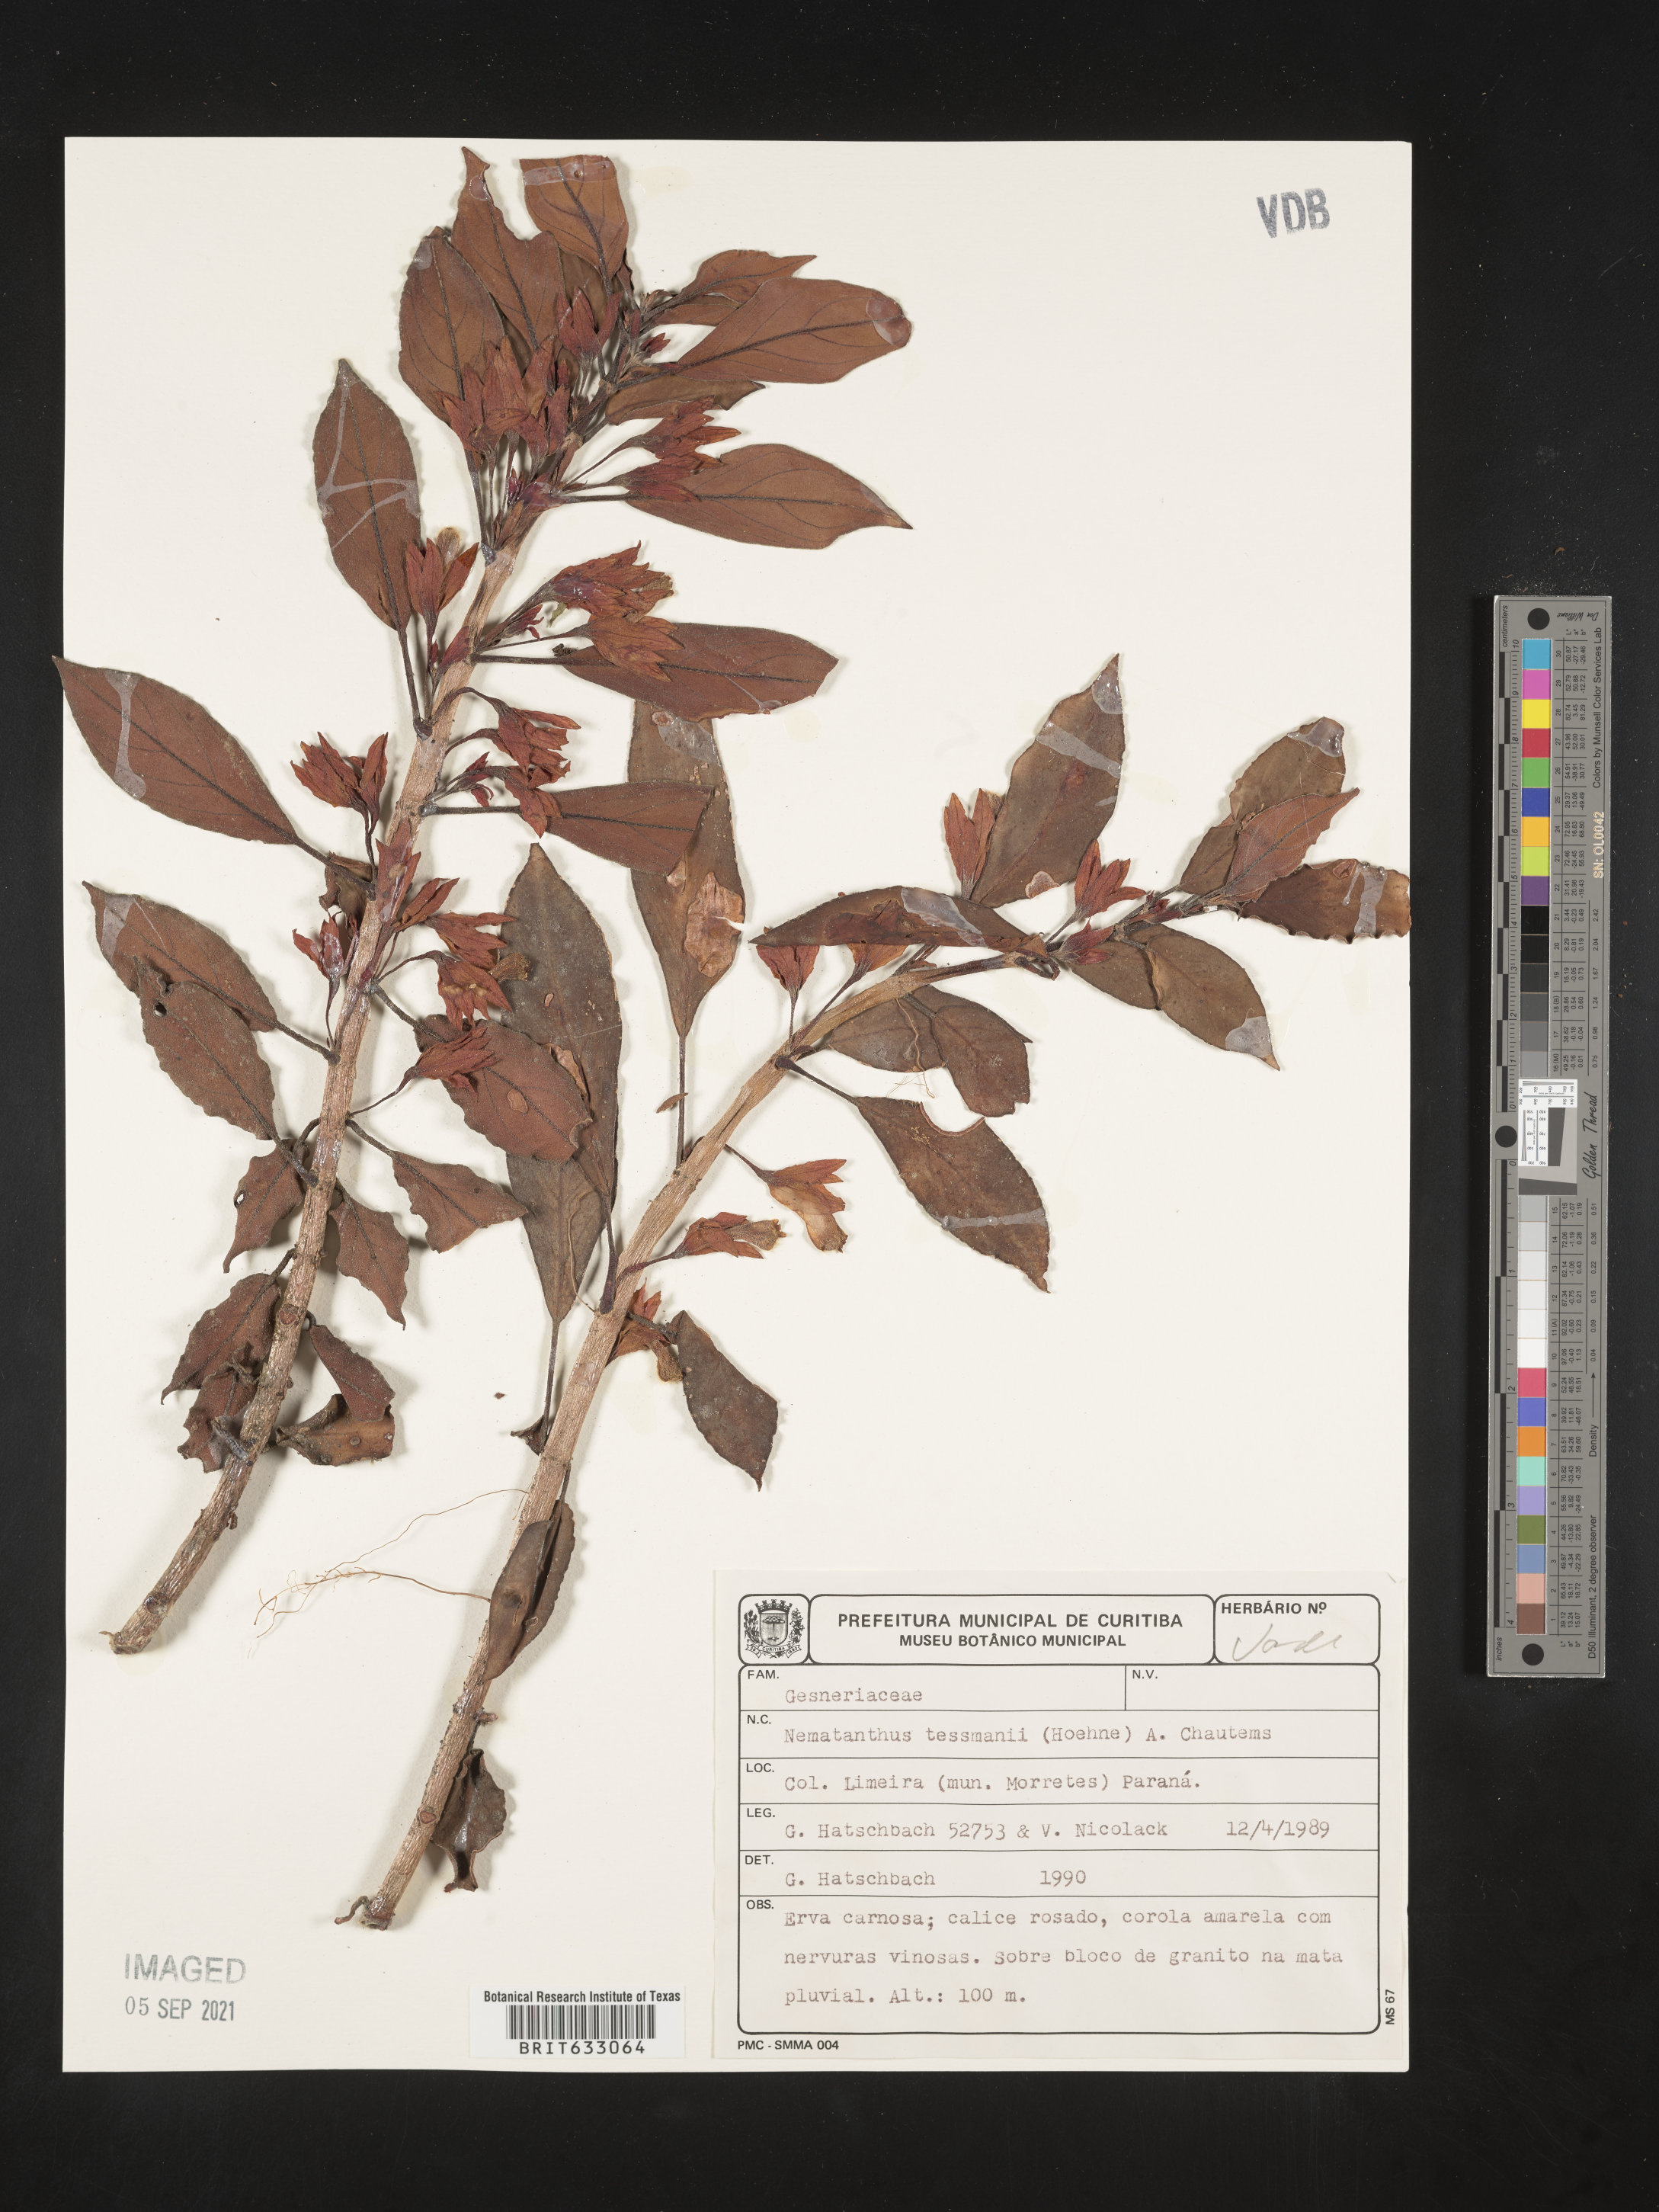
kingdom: Plantae
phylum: Tracheophyta
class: Magnoliopsida
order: Lamiales
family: Gesneriaceae
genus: Nematanthus
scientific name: Nematanthus
